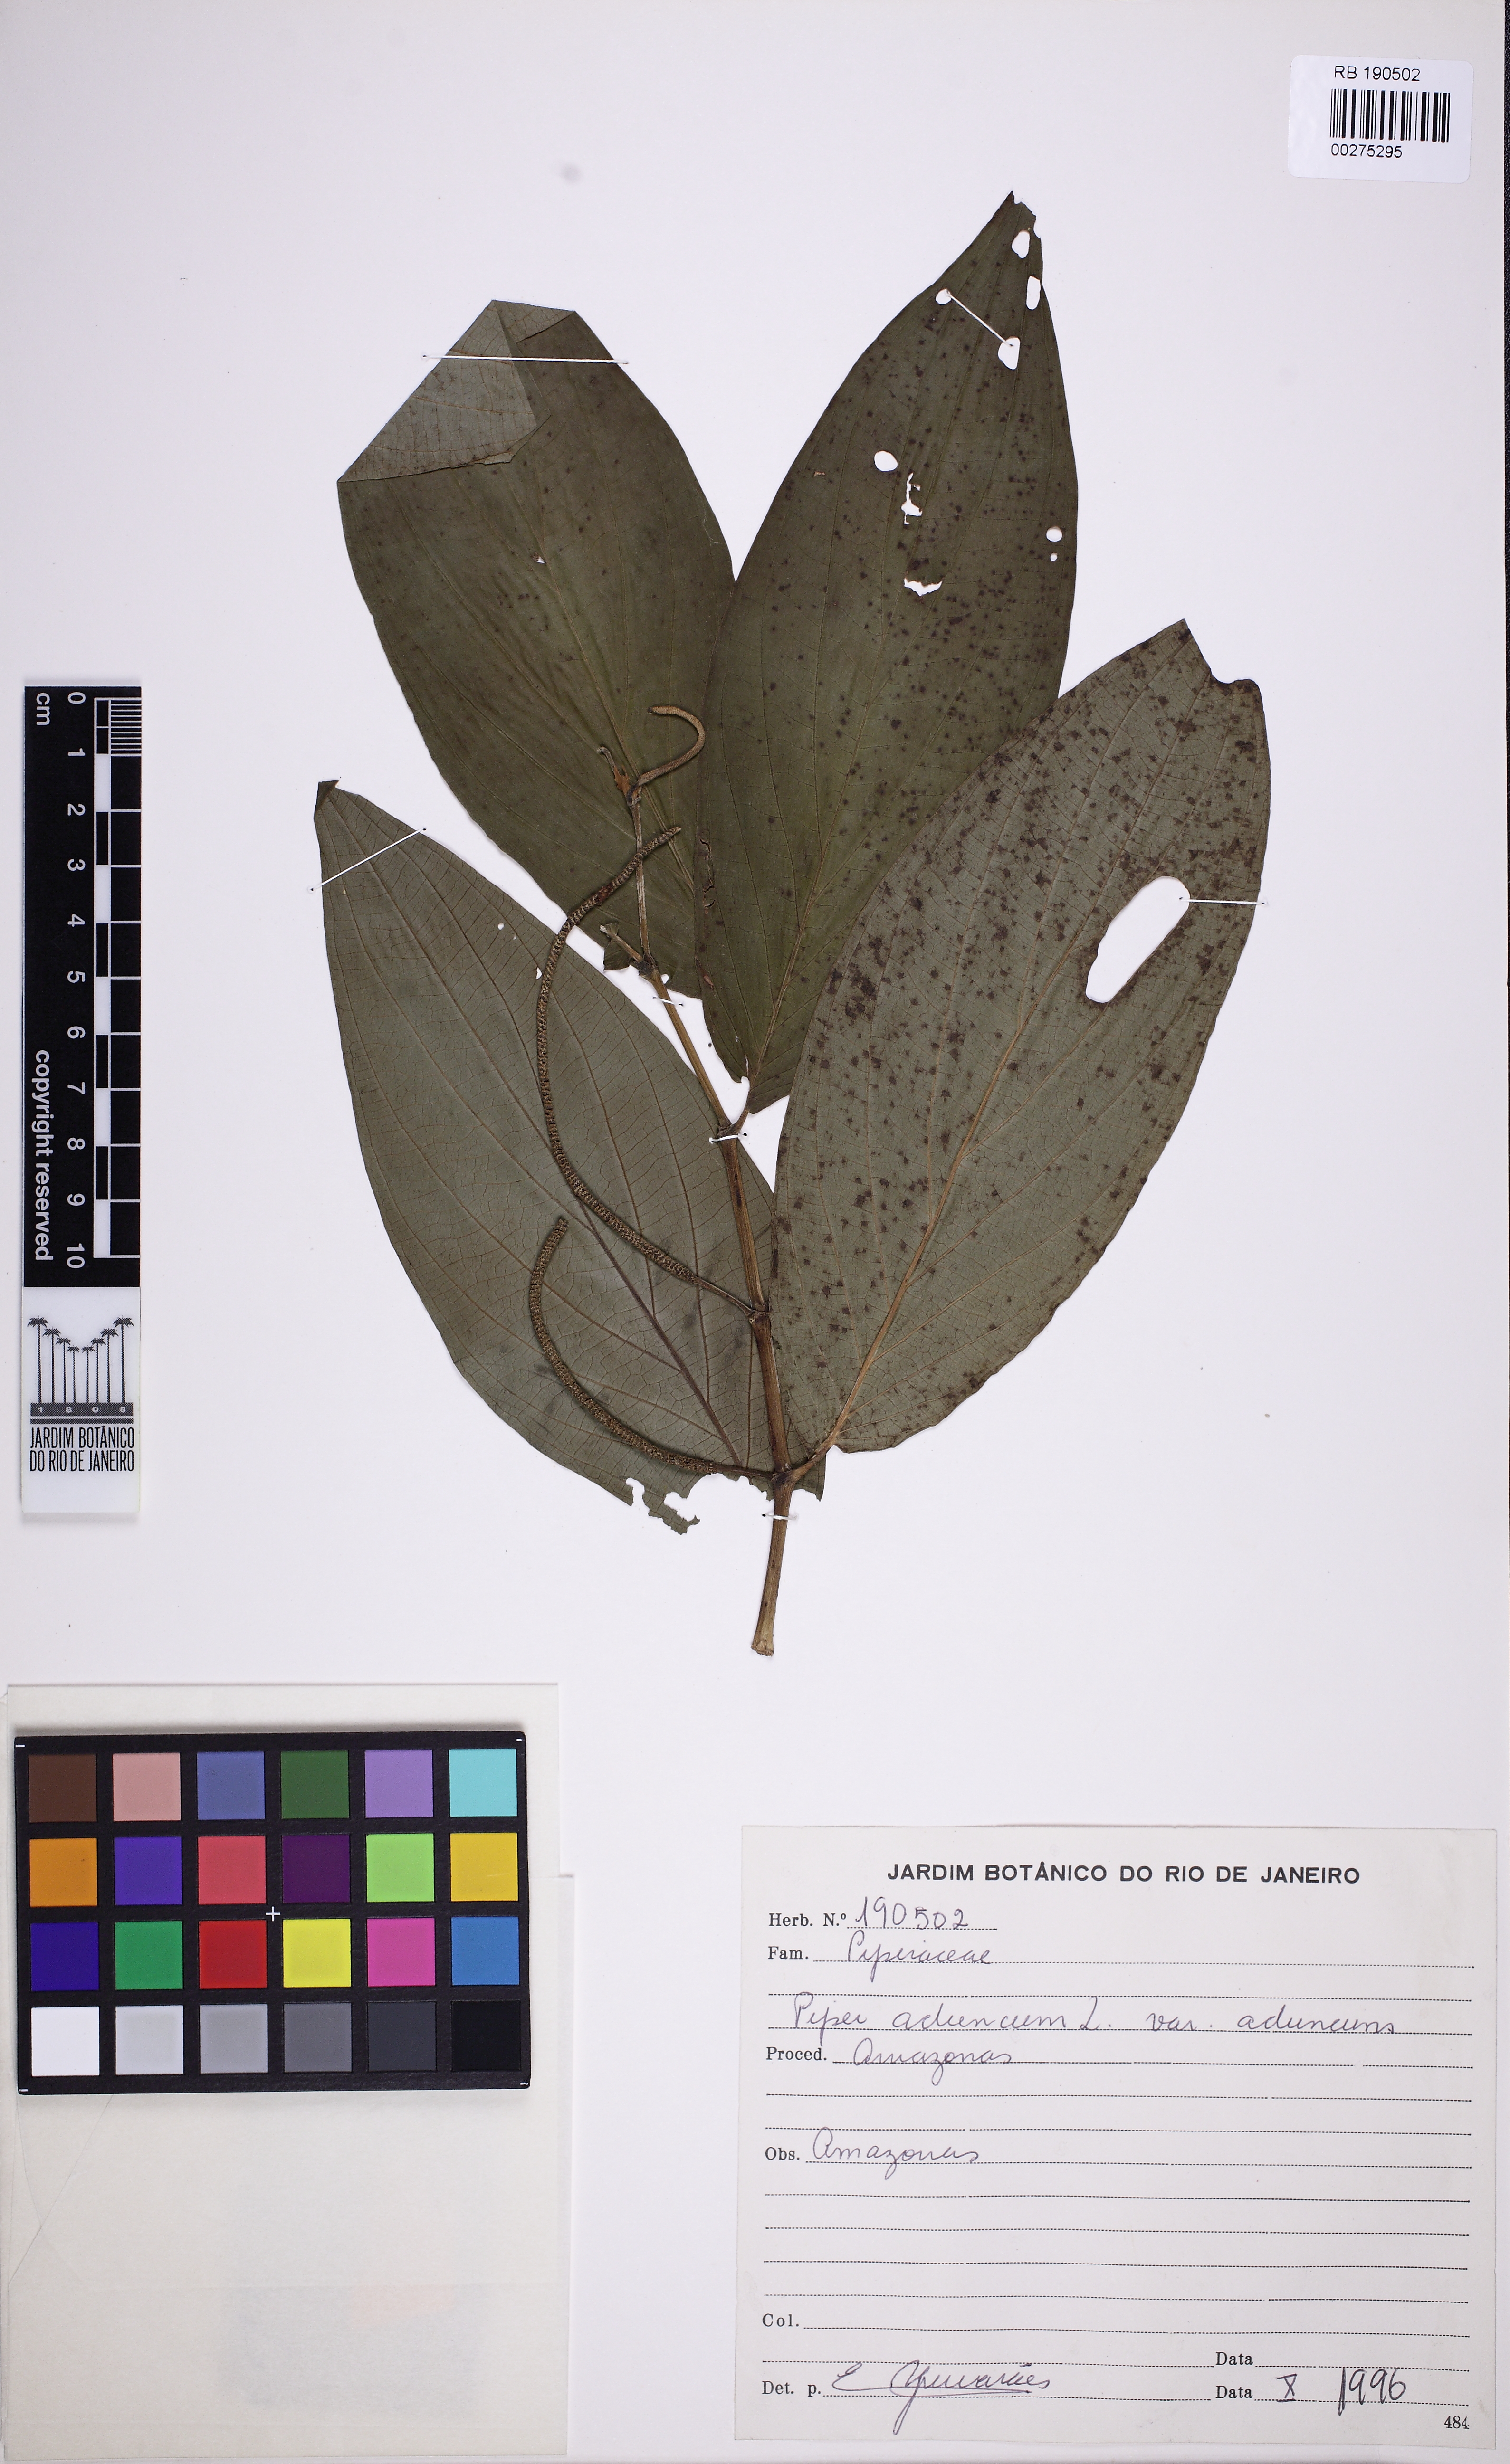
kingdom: Plantae
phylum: Tracheophyta
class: Magnoliopsida
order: Piperales
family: Piperaceae
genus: Piper
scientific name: Piper aduncum
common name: Spiked pepper
